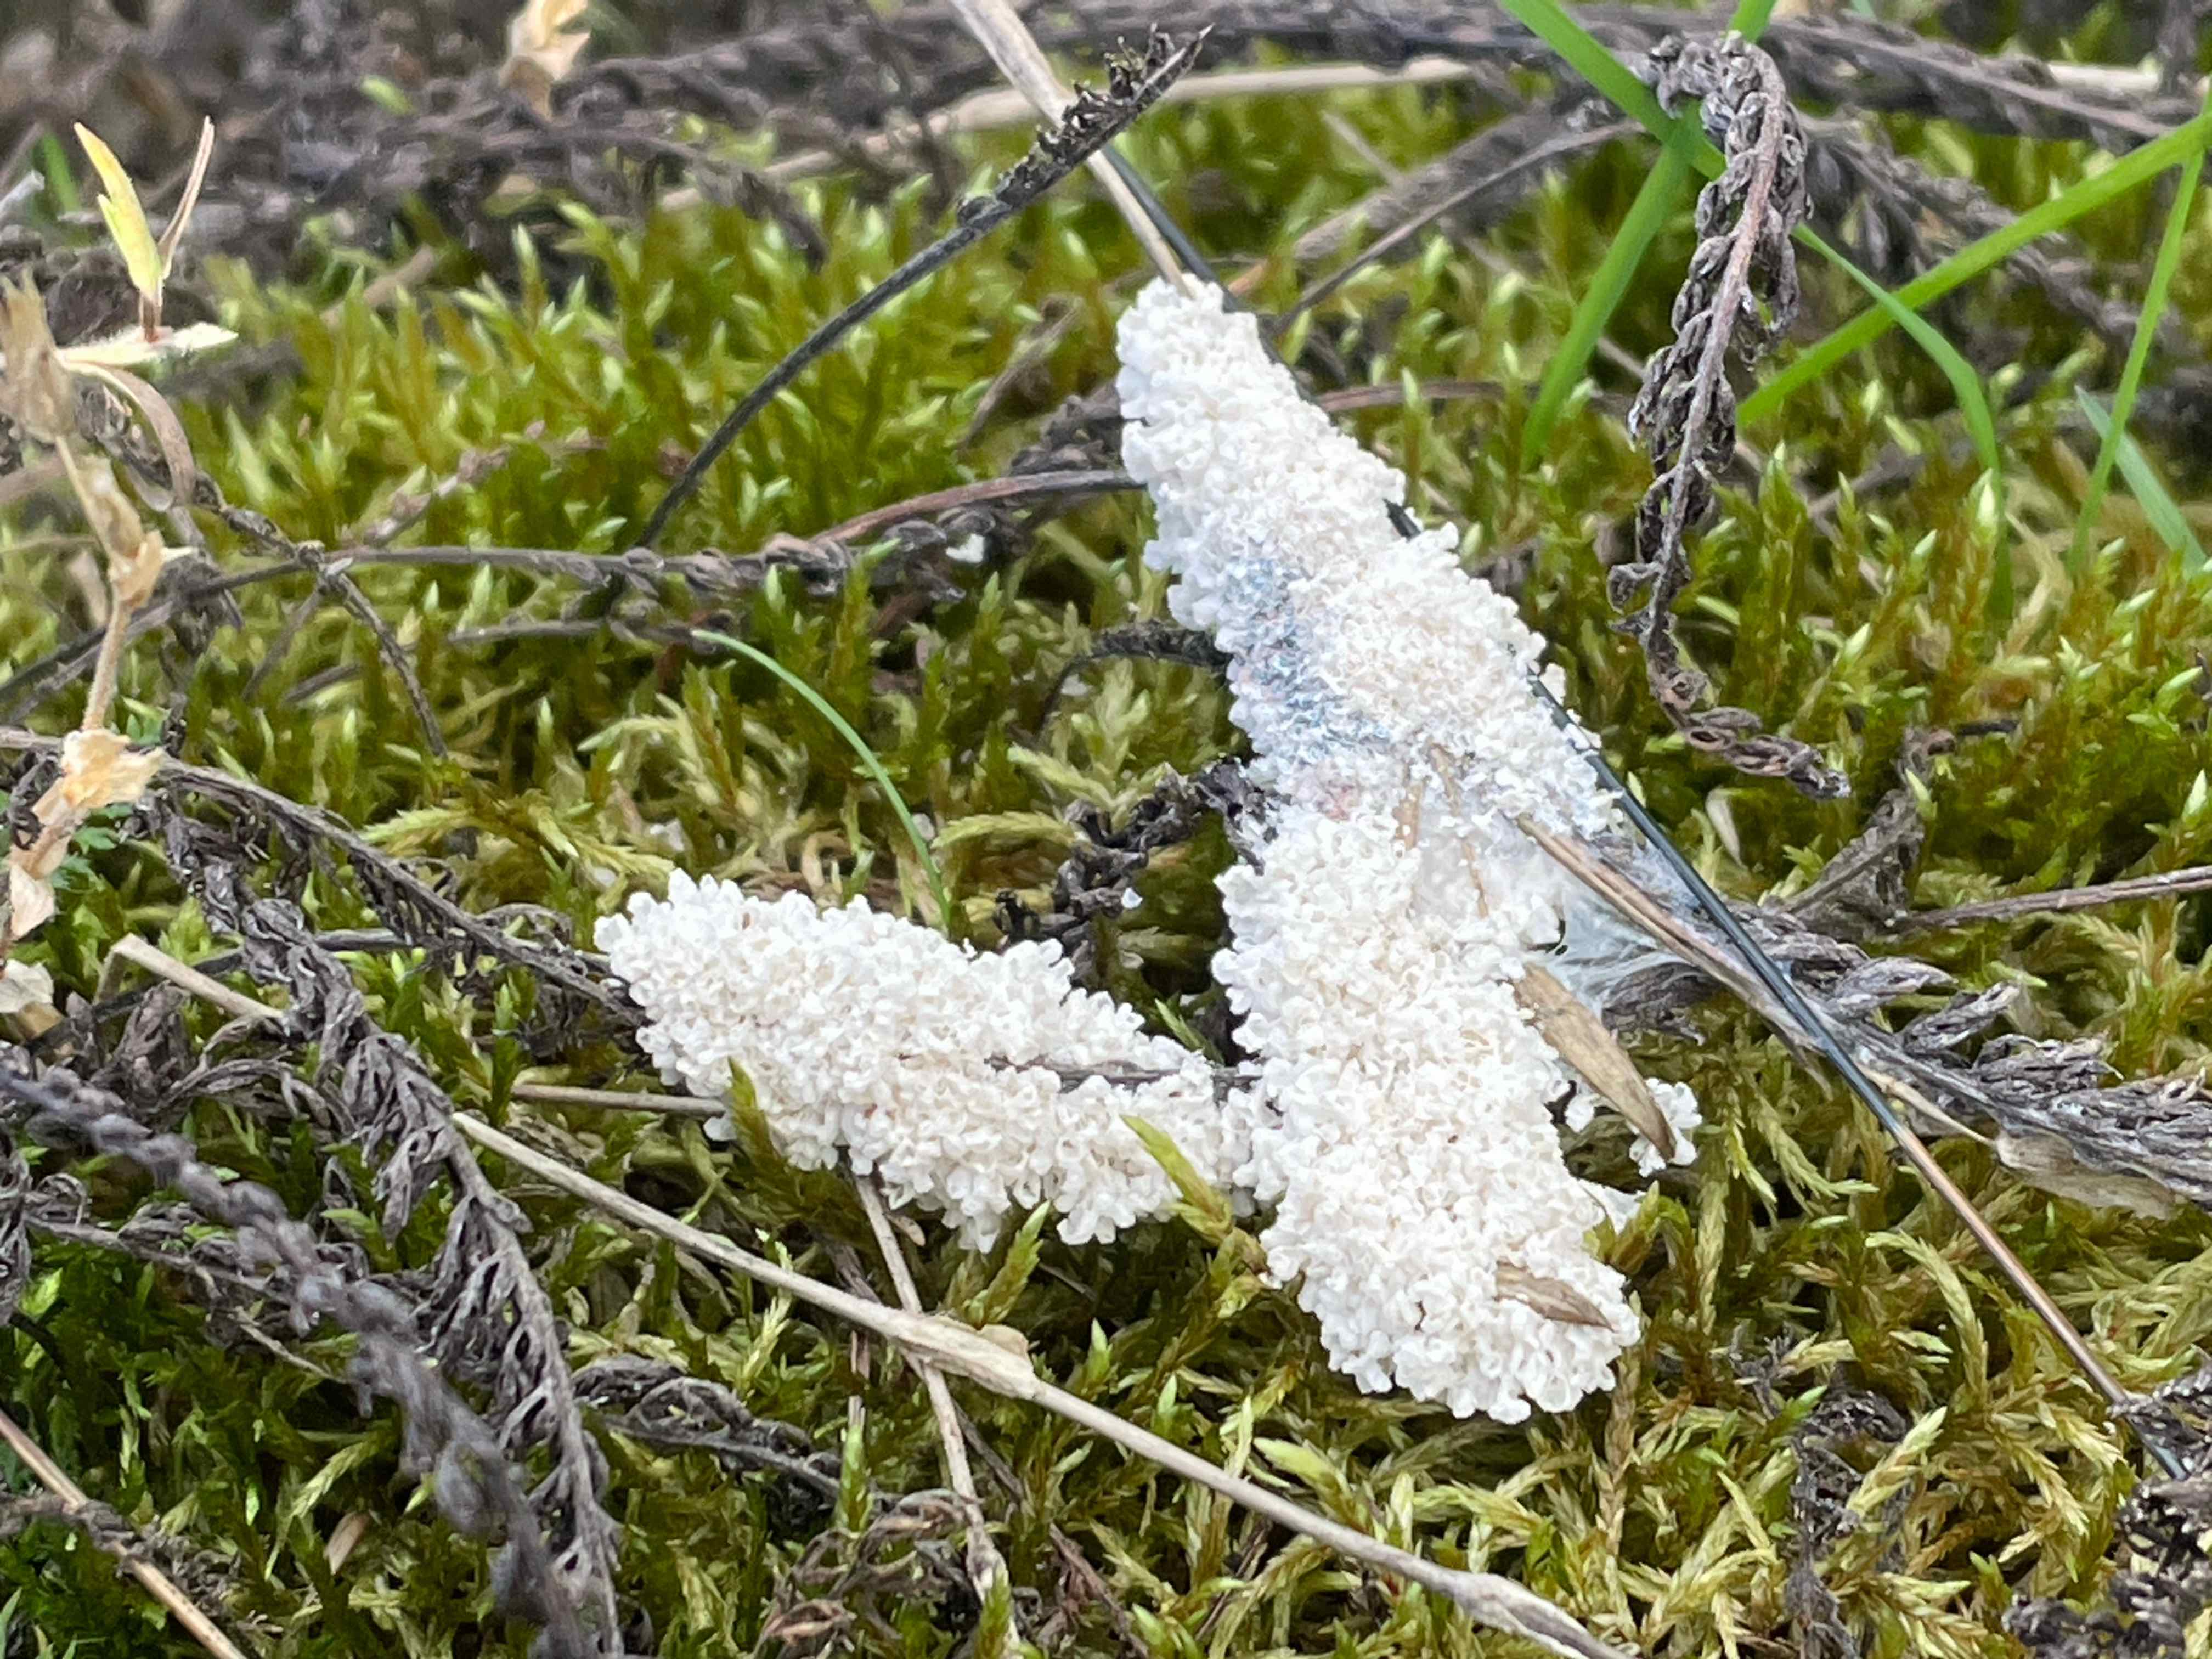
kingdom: Protozoa
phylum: Mycetozoa
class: Myxomycetes
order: Physarales
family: Physaraceae
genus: Didymium
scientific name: Didymium
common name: urteskum
